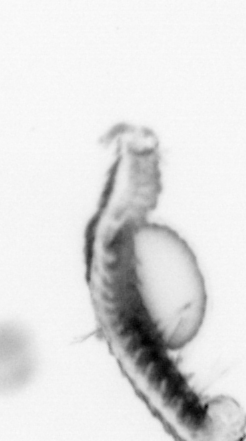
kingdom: Animalia
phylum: Annelida
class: Polychaeta
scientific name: Polychaeta
